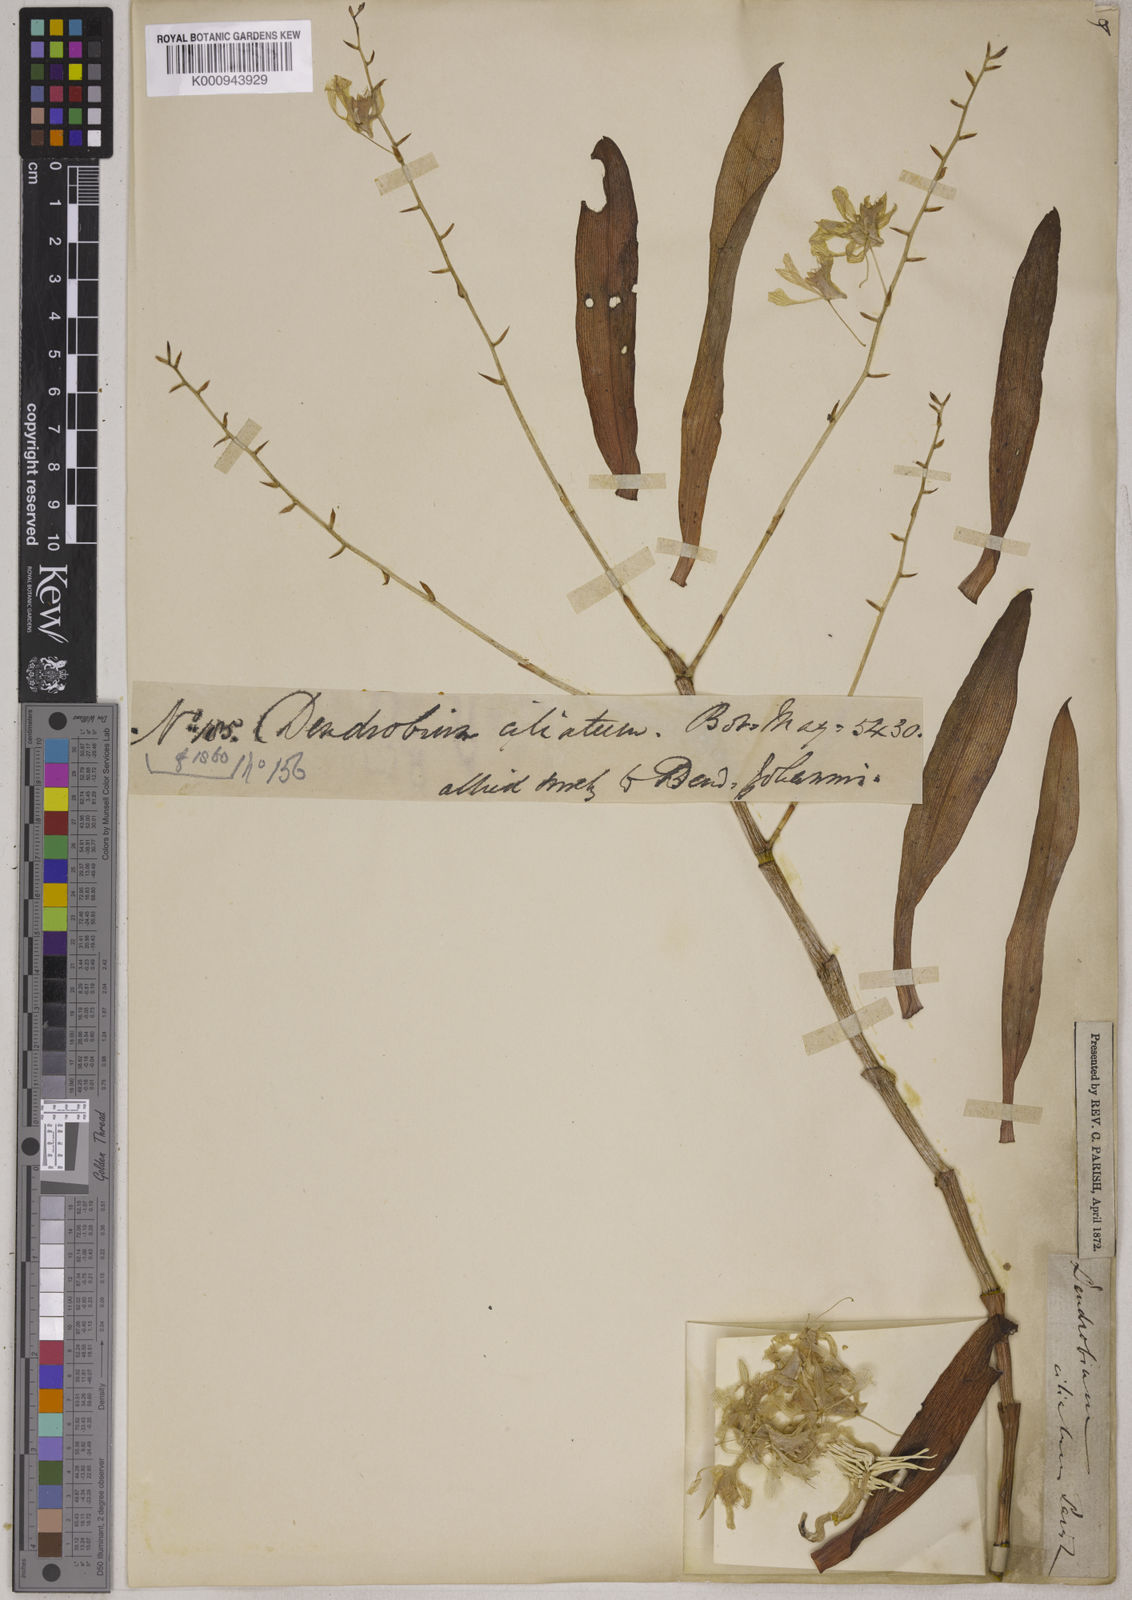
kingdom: Plantae
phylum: Tracheophyta
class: Liliopsida
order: Asparagales
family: Orchidaceae
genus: Dendrobium
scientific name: Dendrobium venustum
